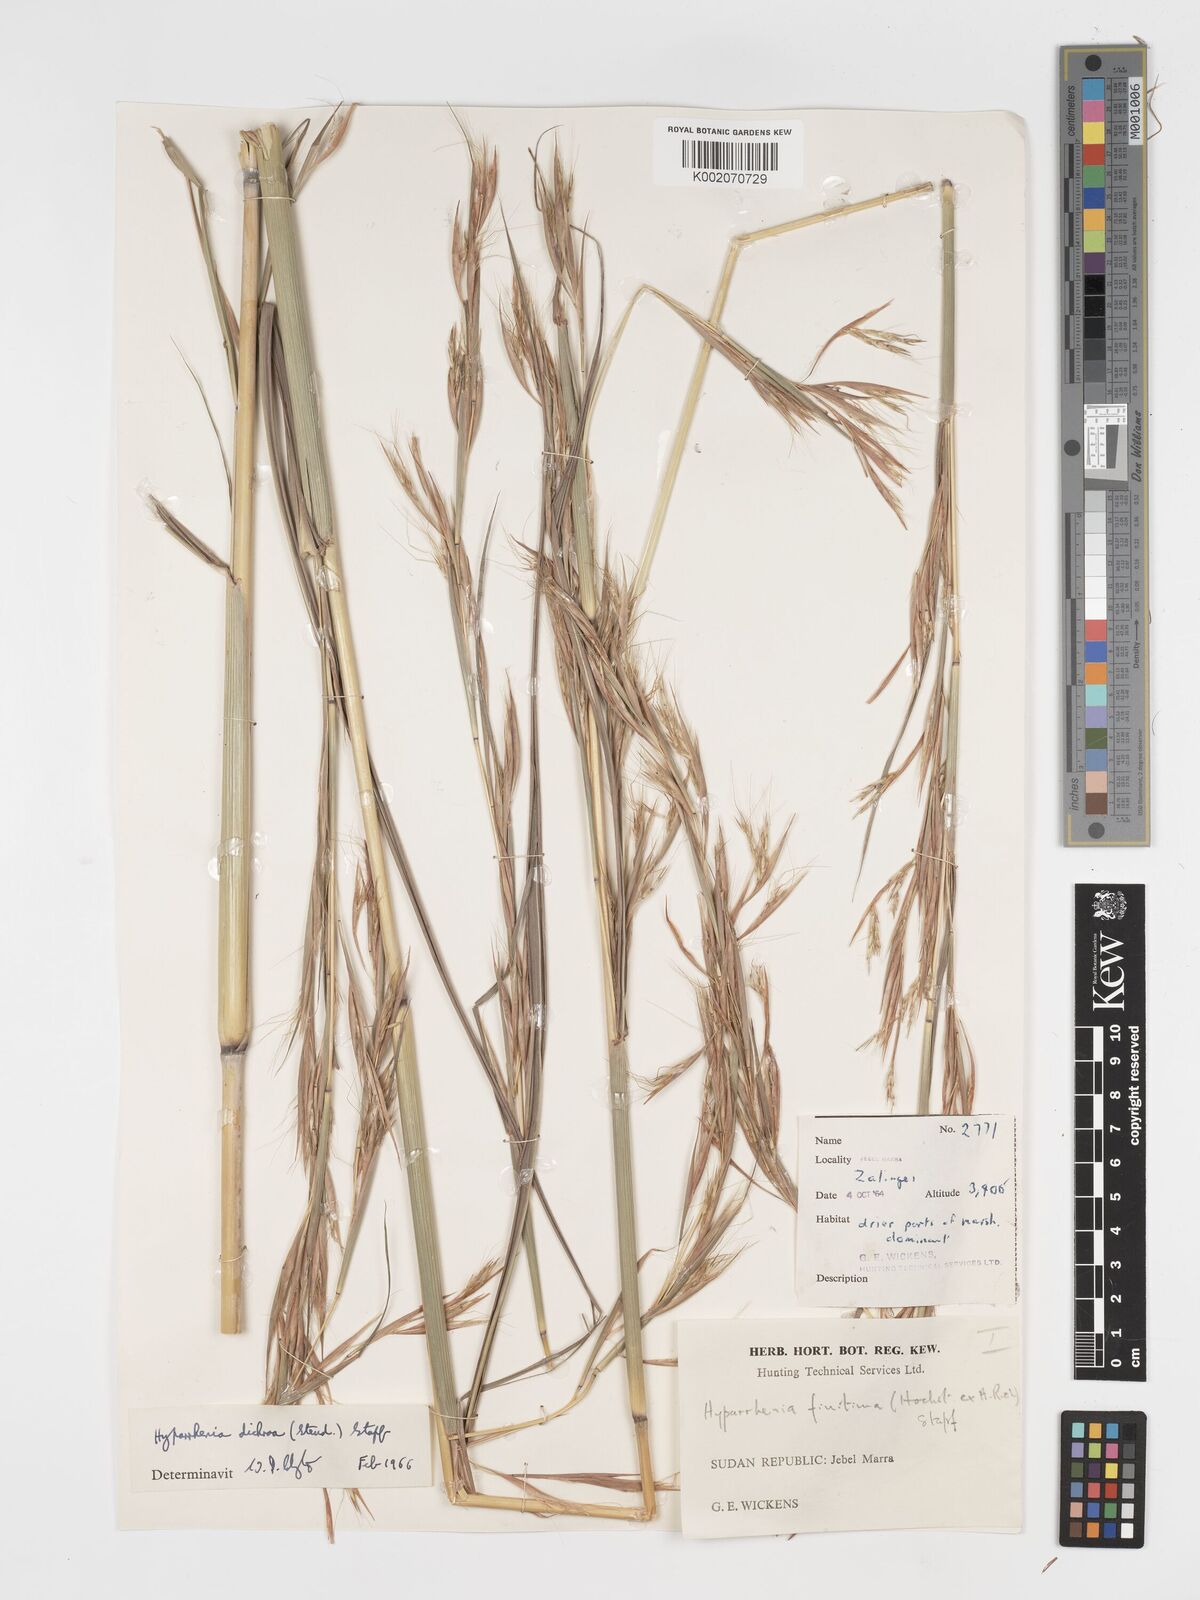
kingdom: Plantae
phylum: Tracheophyta
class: Liliopsida
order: Poales
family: Poaceae
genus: Hyparrhenia
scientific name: Hyparrhenia dichroa
